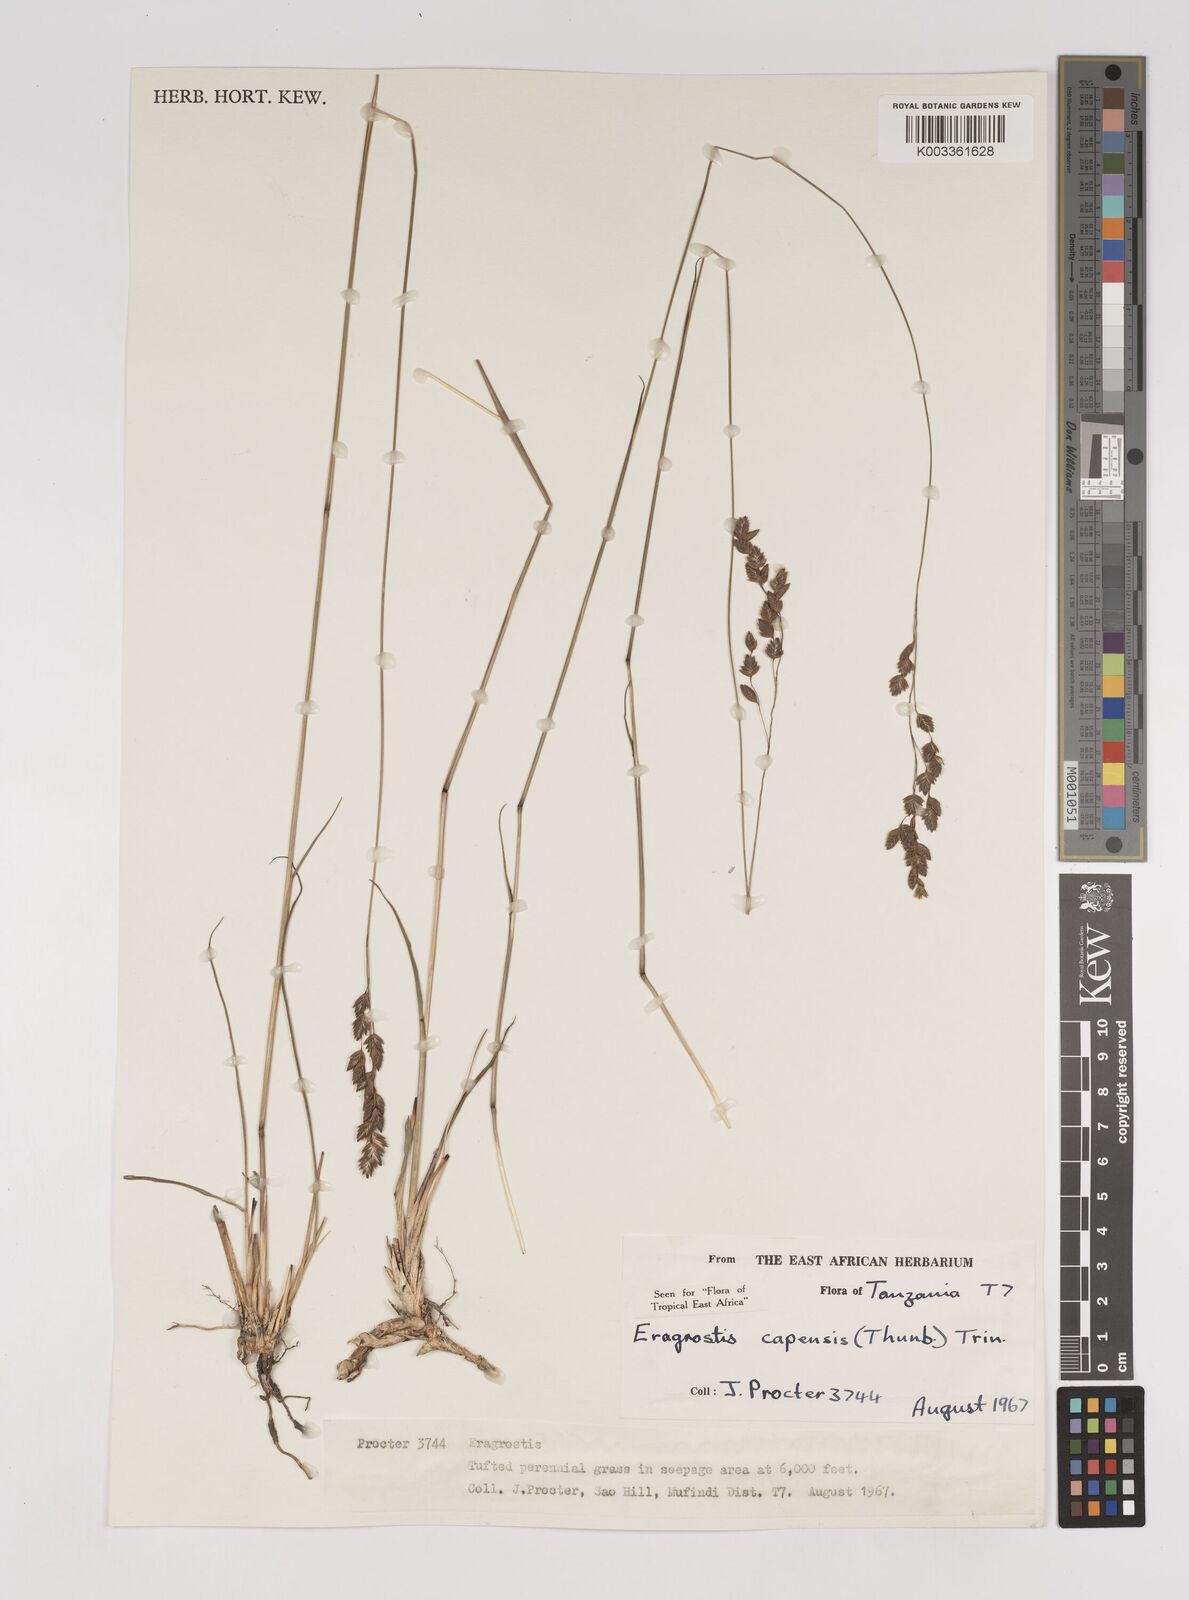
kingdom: Plantae
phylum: Tracheophyta
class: Liliopsida
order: Poales
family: Poaceae
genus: Eragrostis
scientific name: Eragrostis capensis
